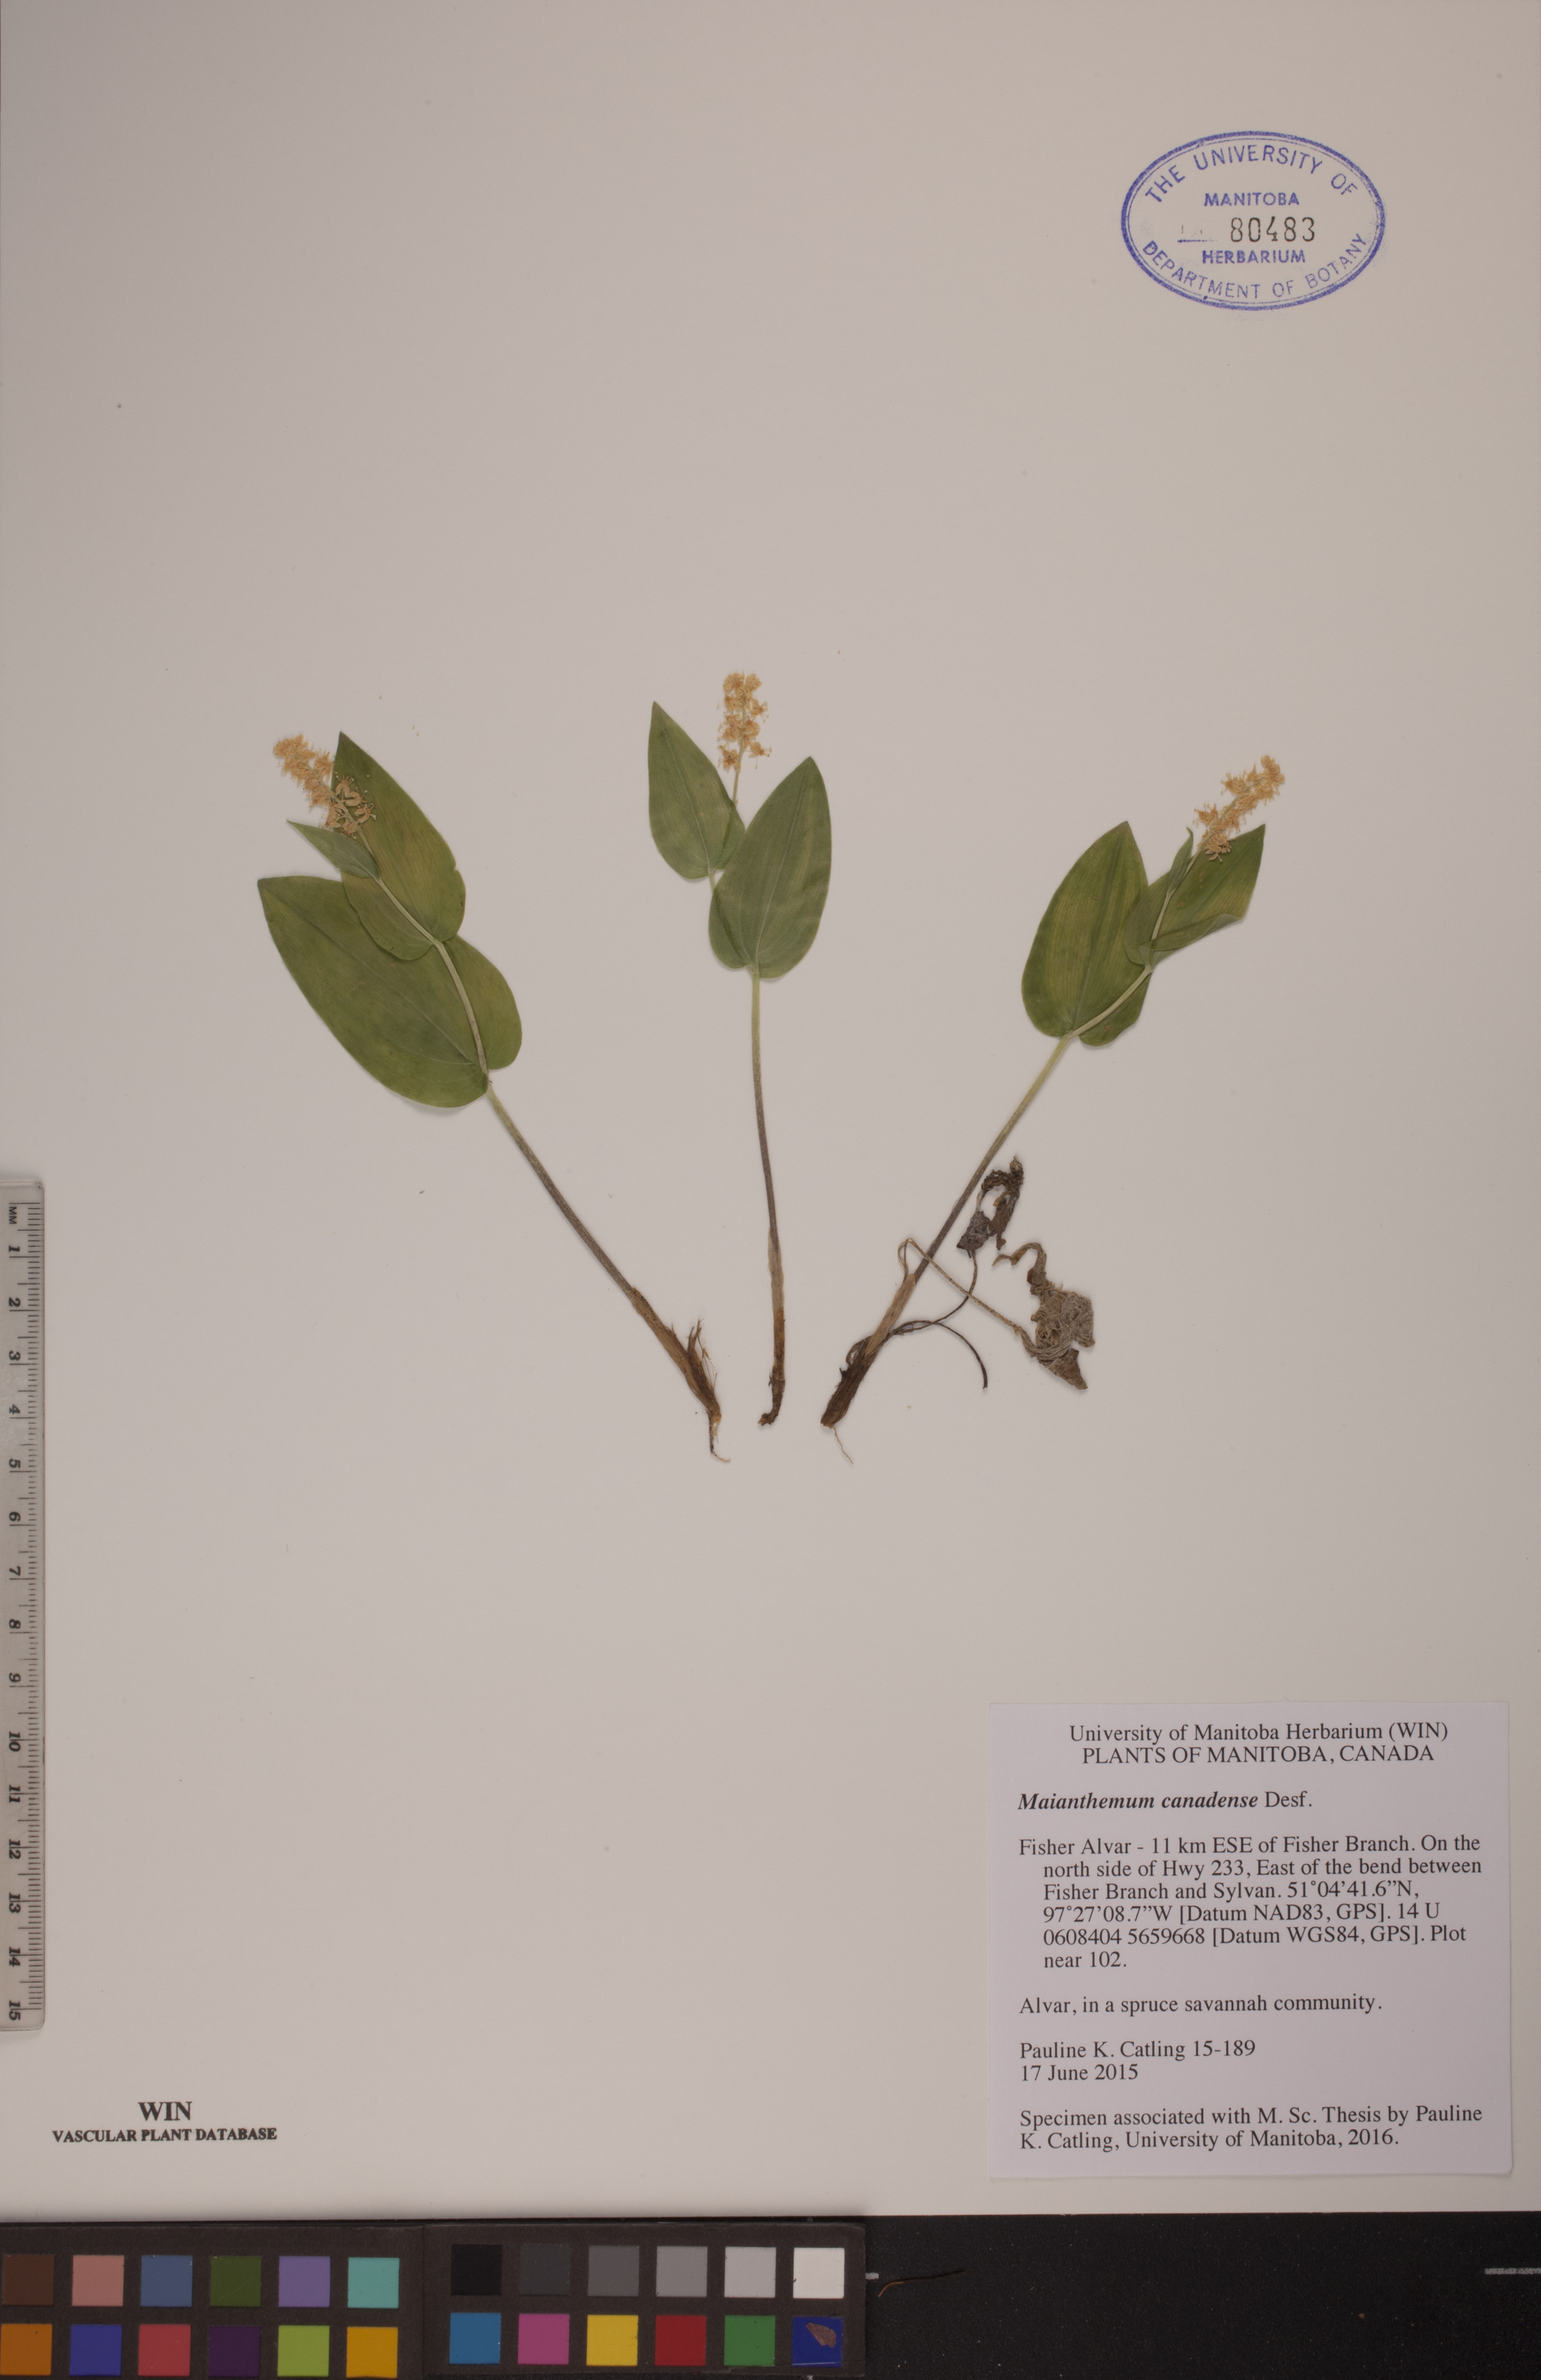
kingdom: Plantae
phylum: Tracheophyta
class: Liliopsida
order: Asparagales
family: Asparagaceae
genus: Maianthemum
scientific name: Maianthemum canadense
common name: False lily-of-the-valley
